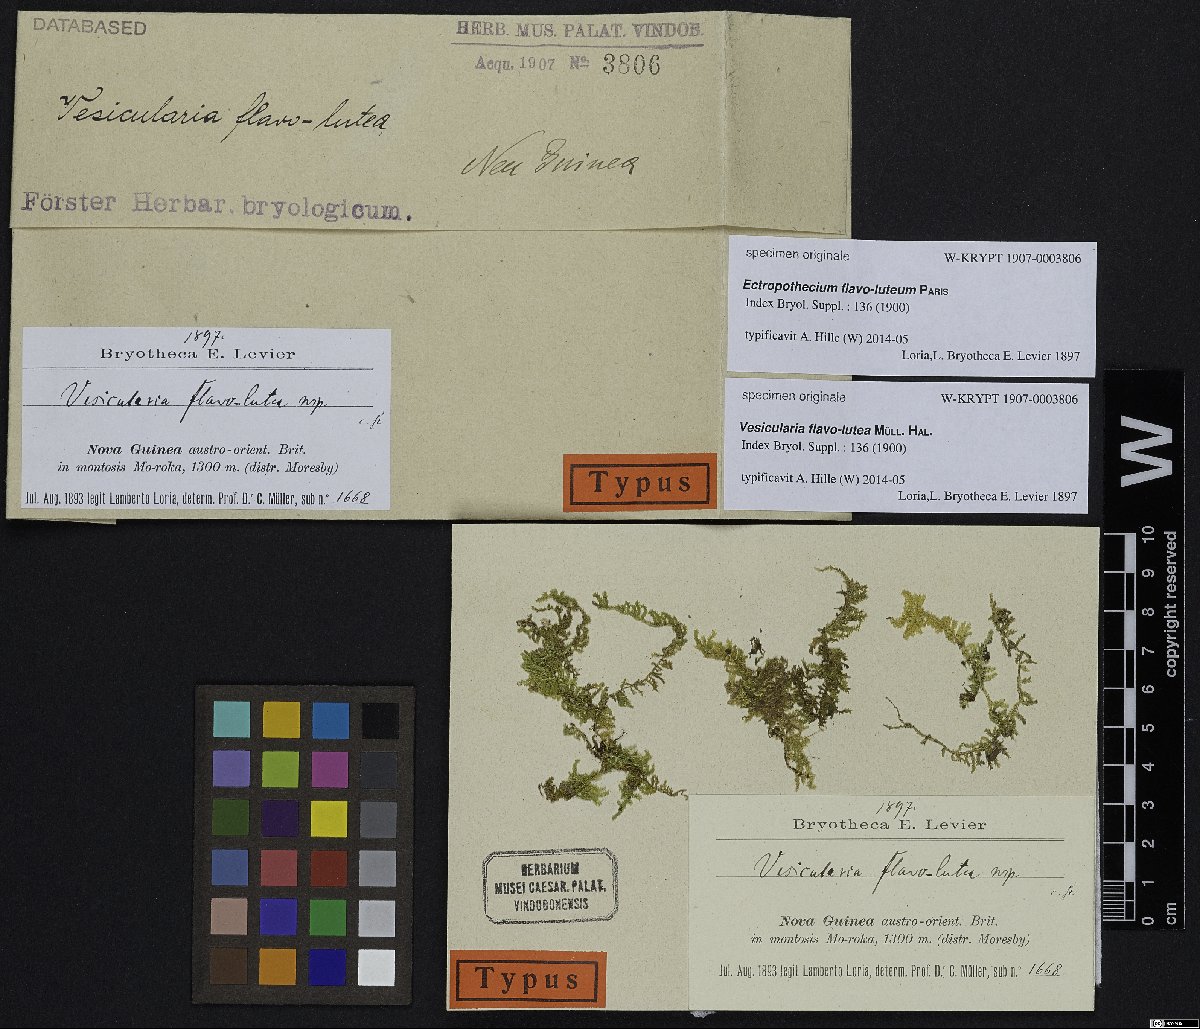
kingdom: Plantae
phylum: Bryophyta
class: Bryopsida
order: Hypnales
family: Hypnaceae
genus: Ectropothecium
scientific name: Ectropothecium
